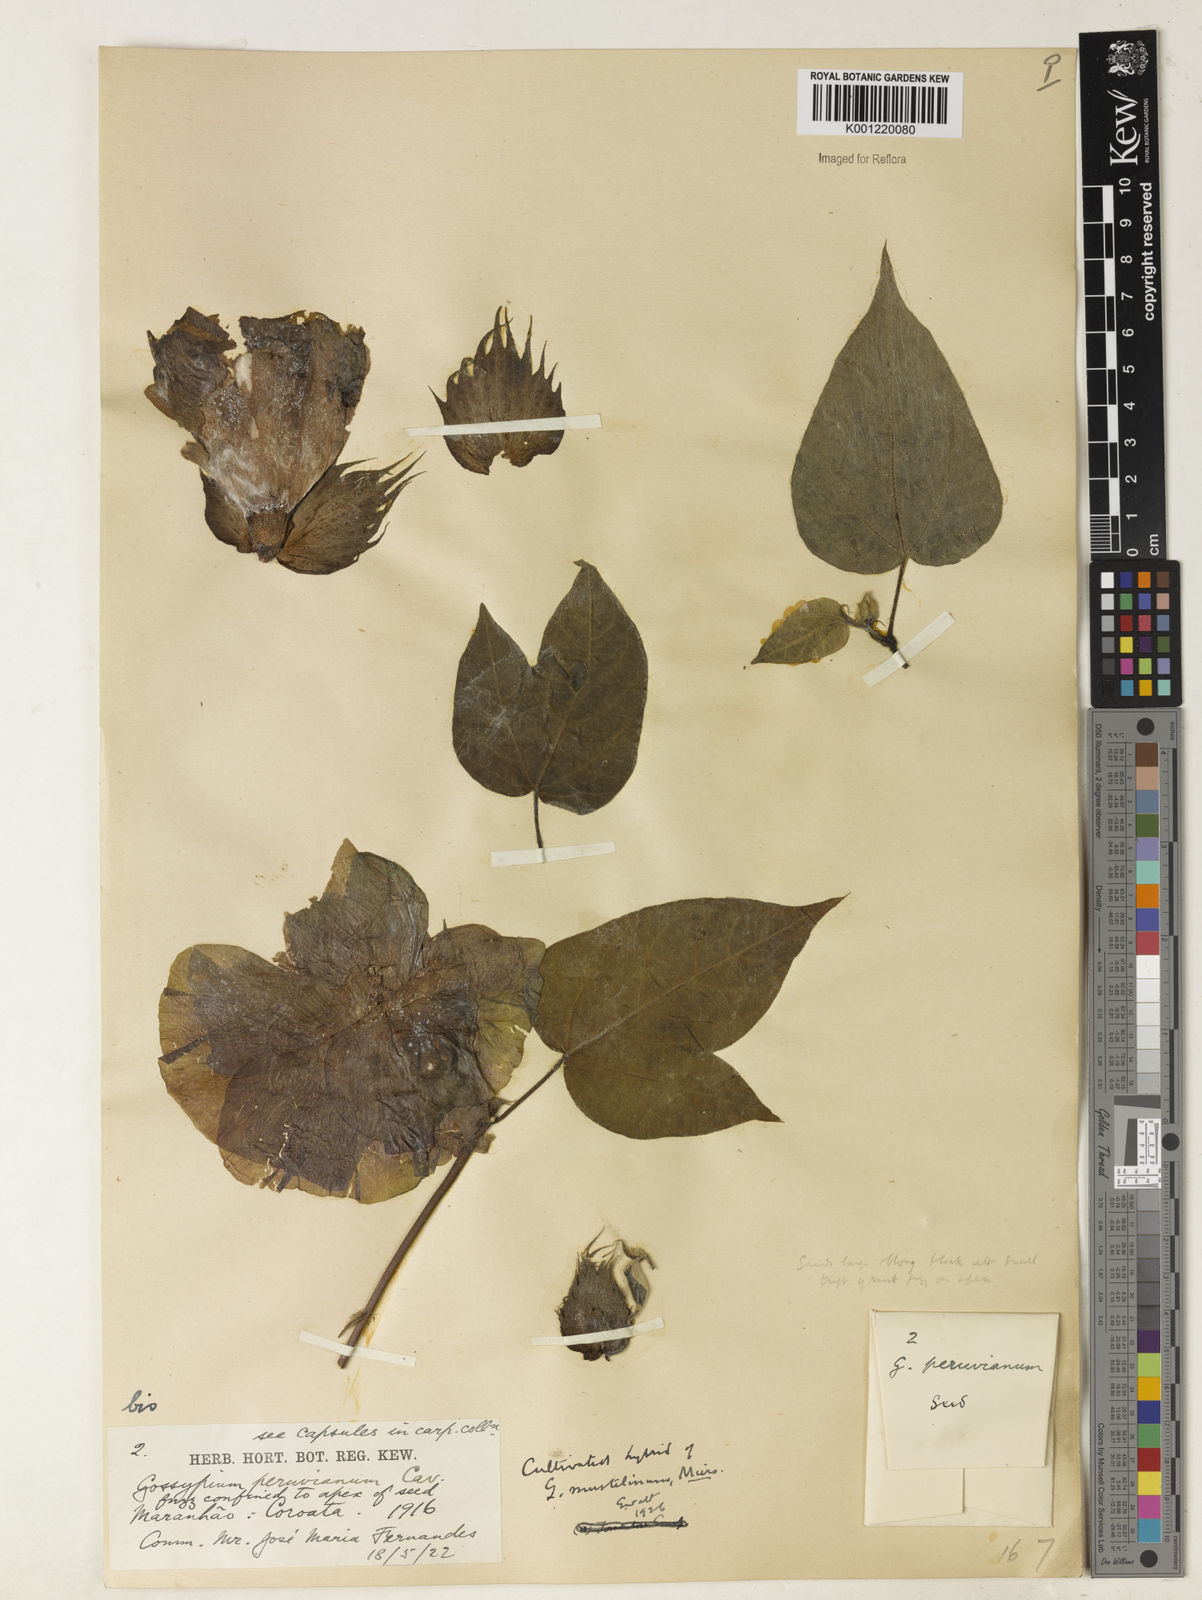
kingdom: Plantae
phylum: Tracheophyta
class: Magnoliopsida
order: Malvales
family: Malvaceae
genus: Gossypium
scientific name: Gossypium
